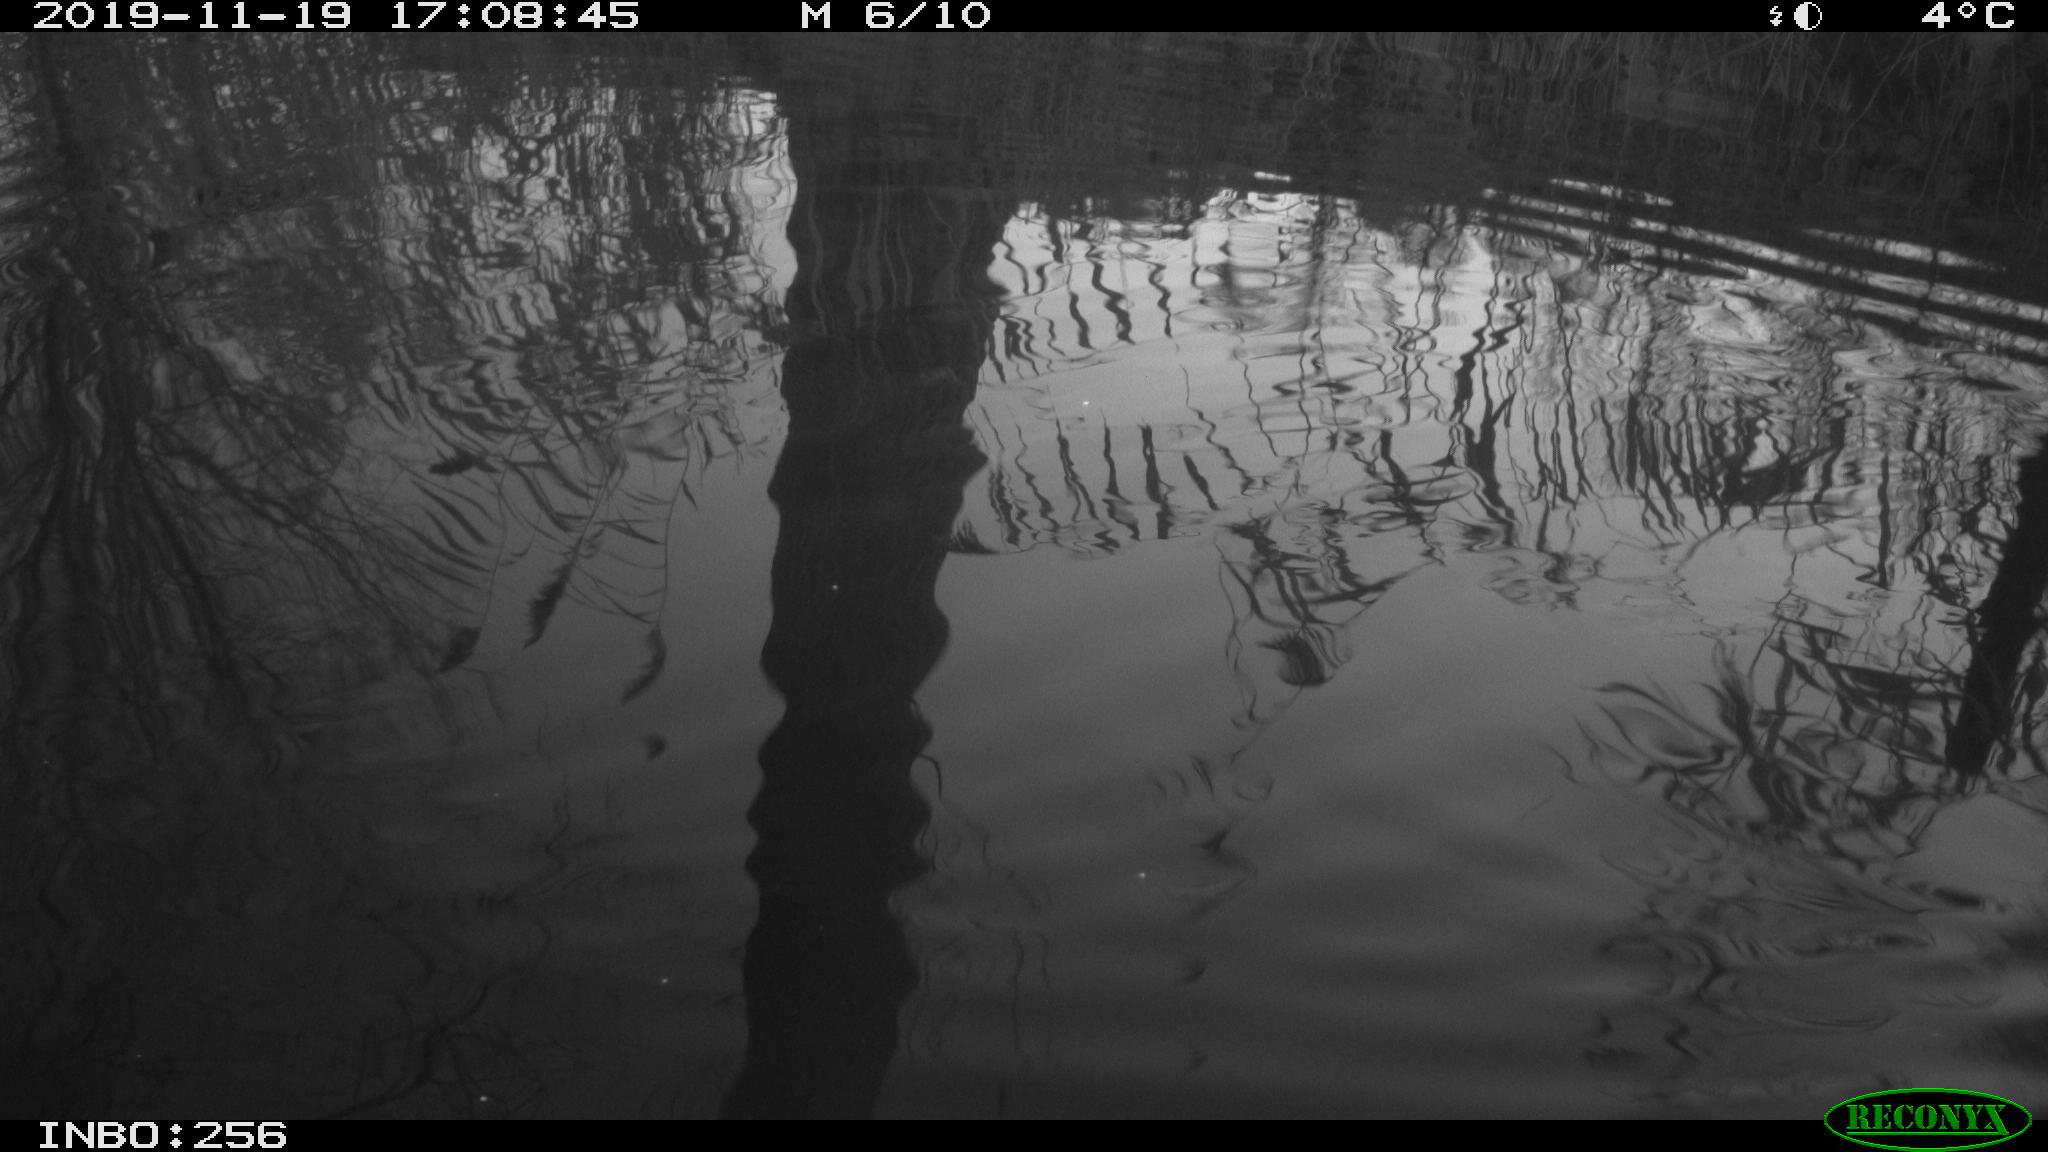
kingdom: Animalia
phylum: Chordata
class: Aves
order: Gruiformes
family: Rallidae
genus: Gallinula
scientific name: Gallinula chloropus
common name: Common moorhen
